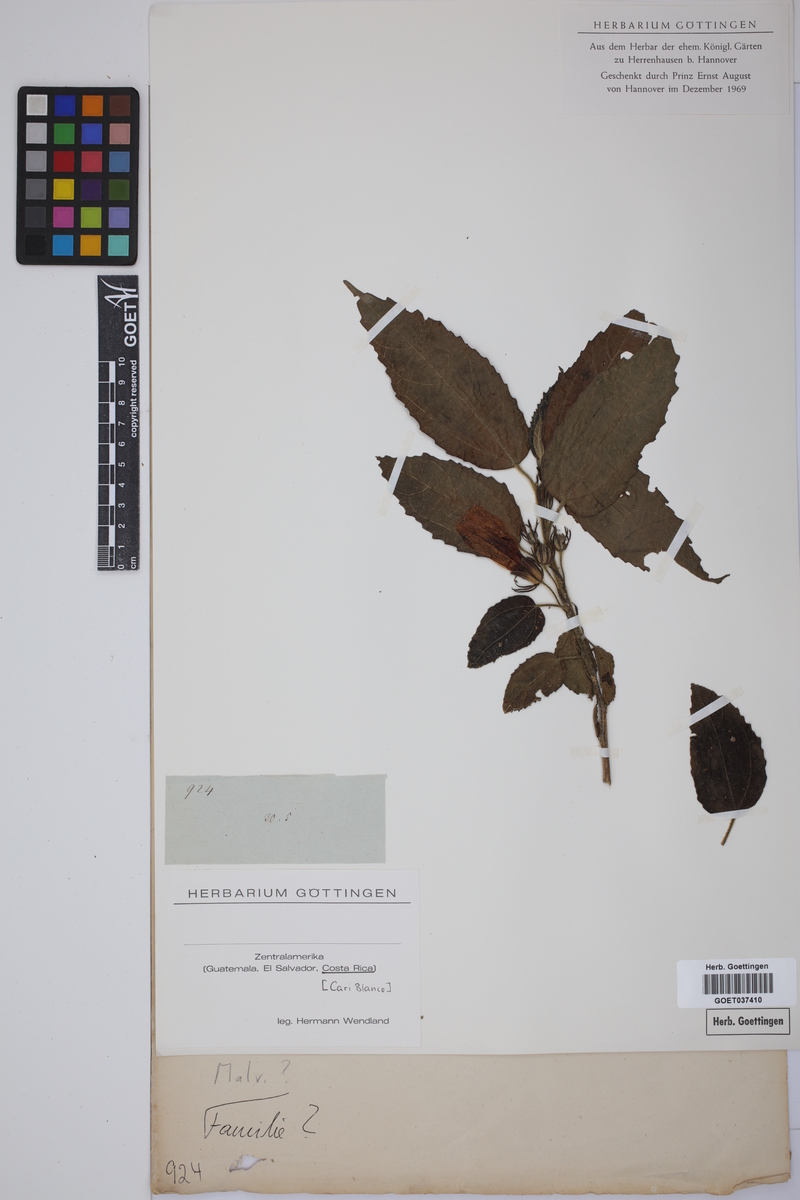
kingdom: Plantae
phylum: Tracheophyta
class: Magnoliopsida
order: Malvales
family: Malvaceae
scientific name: Malvaceae
